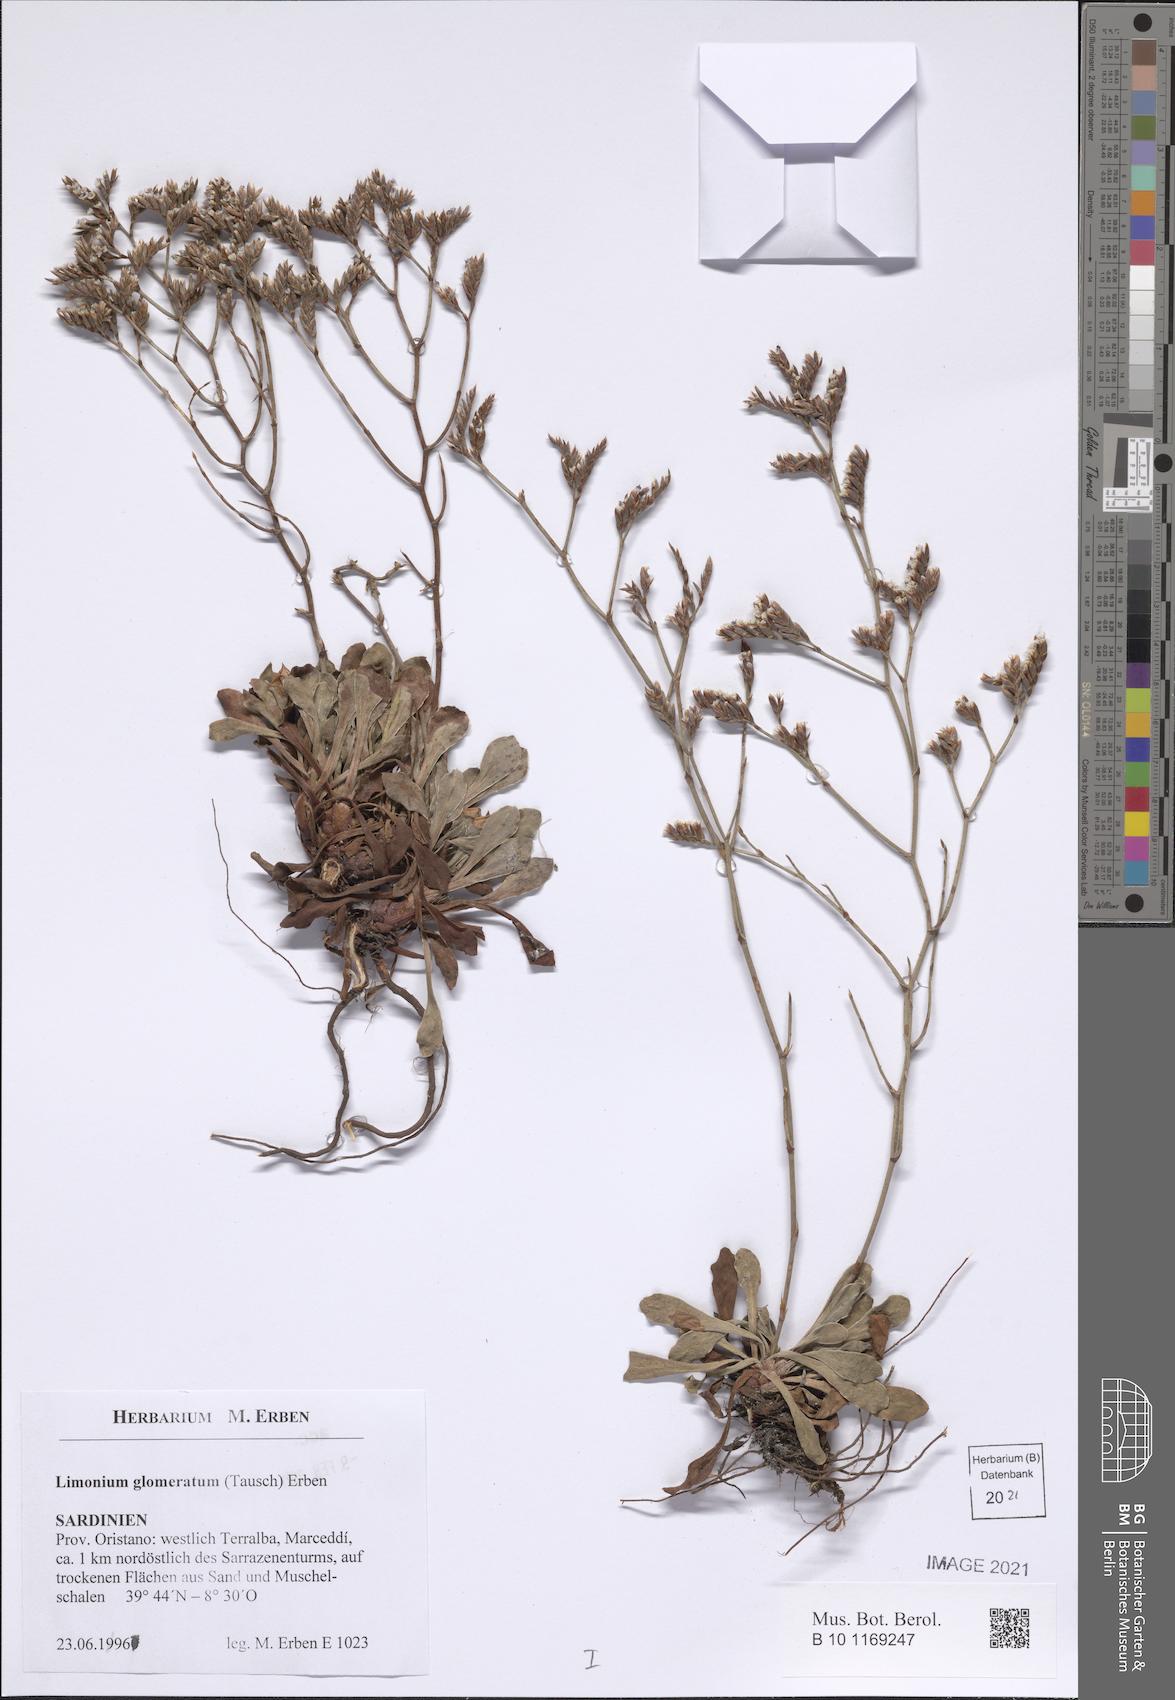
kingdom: Plantae
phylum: Tracheophyta
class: Magnoliopsida
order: Caryophyllales
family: Plumbaginaceae
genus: Limonium
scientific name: Limonium glomeratum
